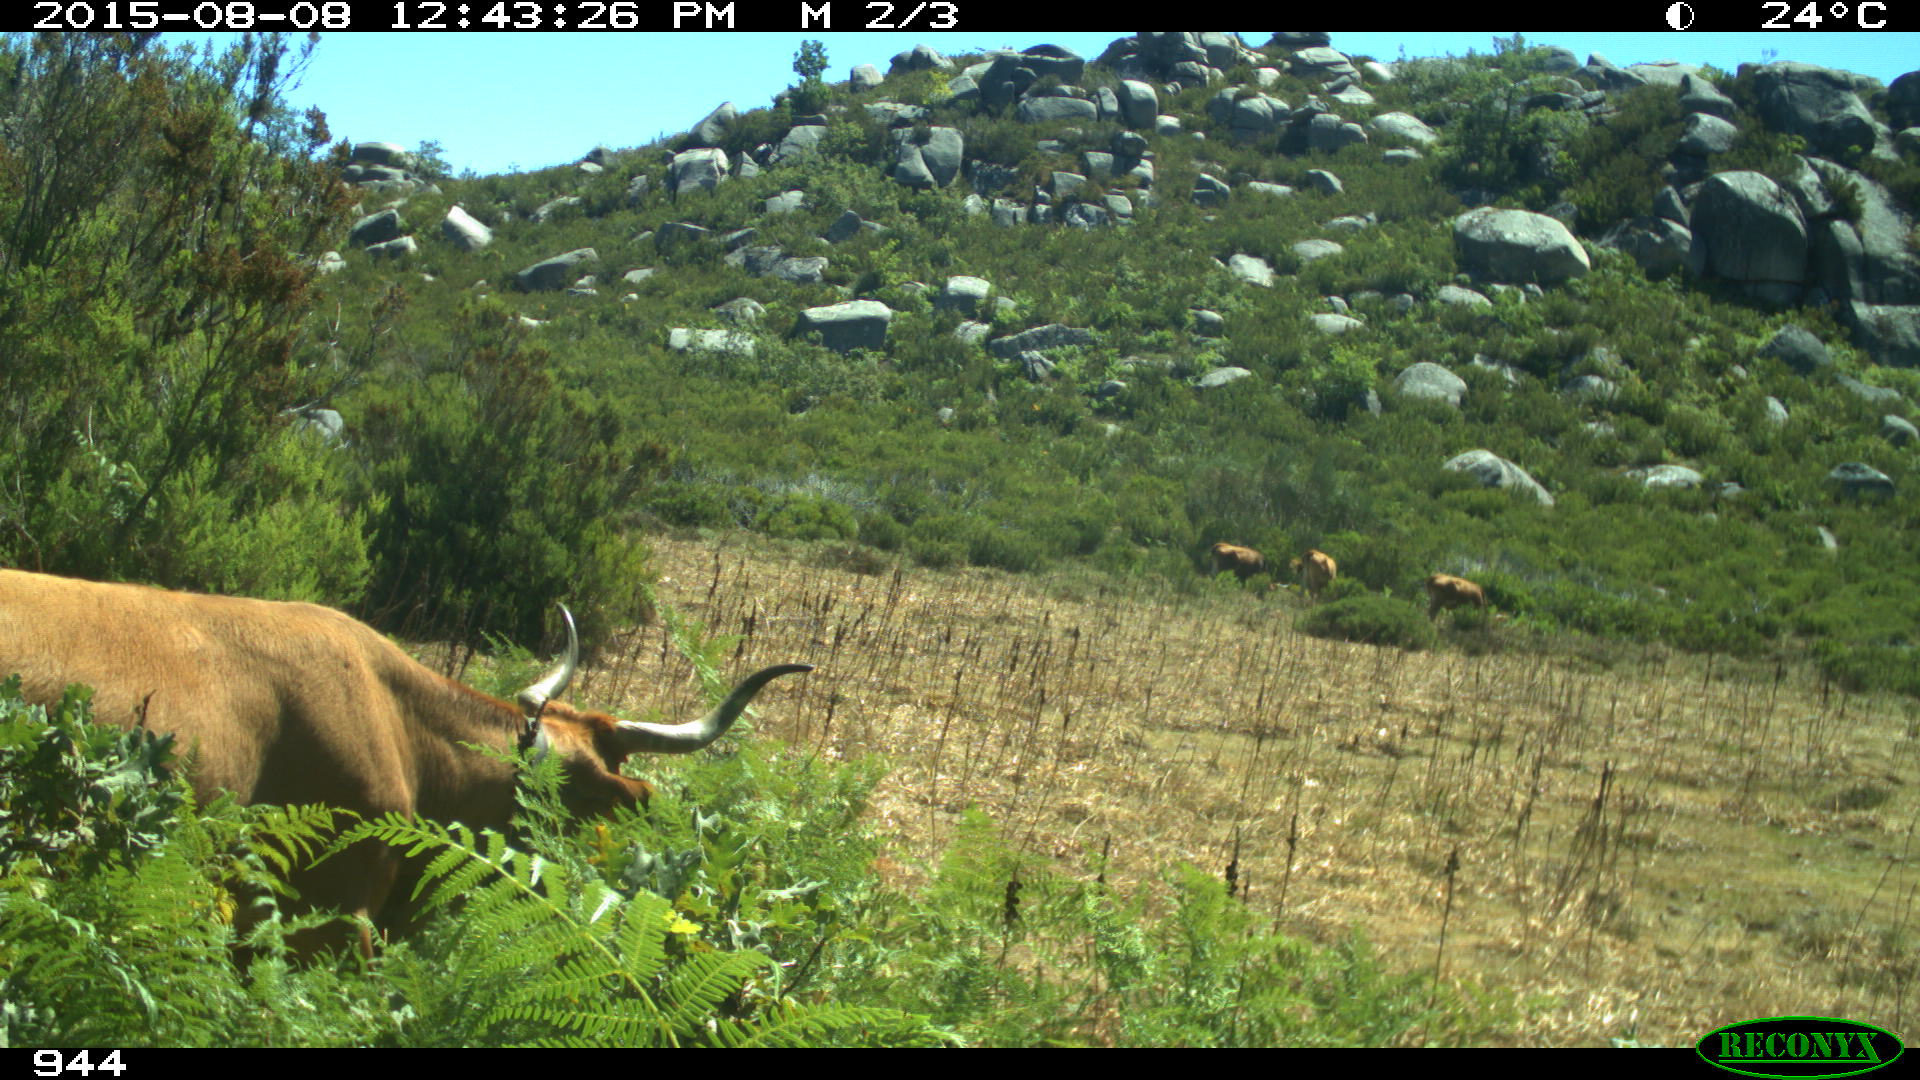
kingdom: Animalia
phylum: Chordata
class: Mammalia
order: Artiodactyla
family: Bovidae
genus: Bos
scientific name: Bos taurus
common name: Domesticated cattle
